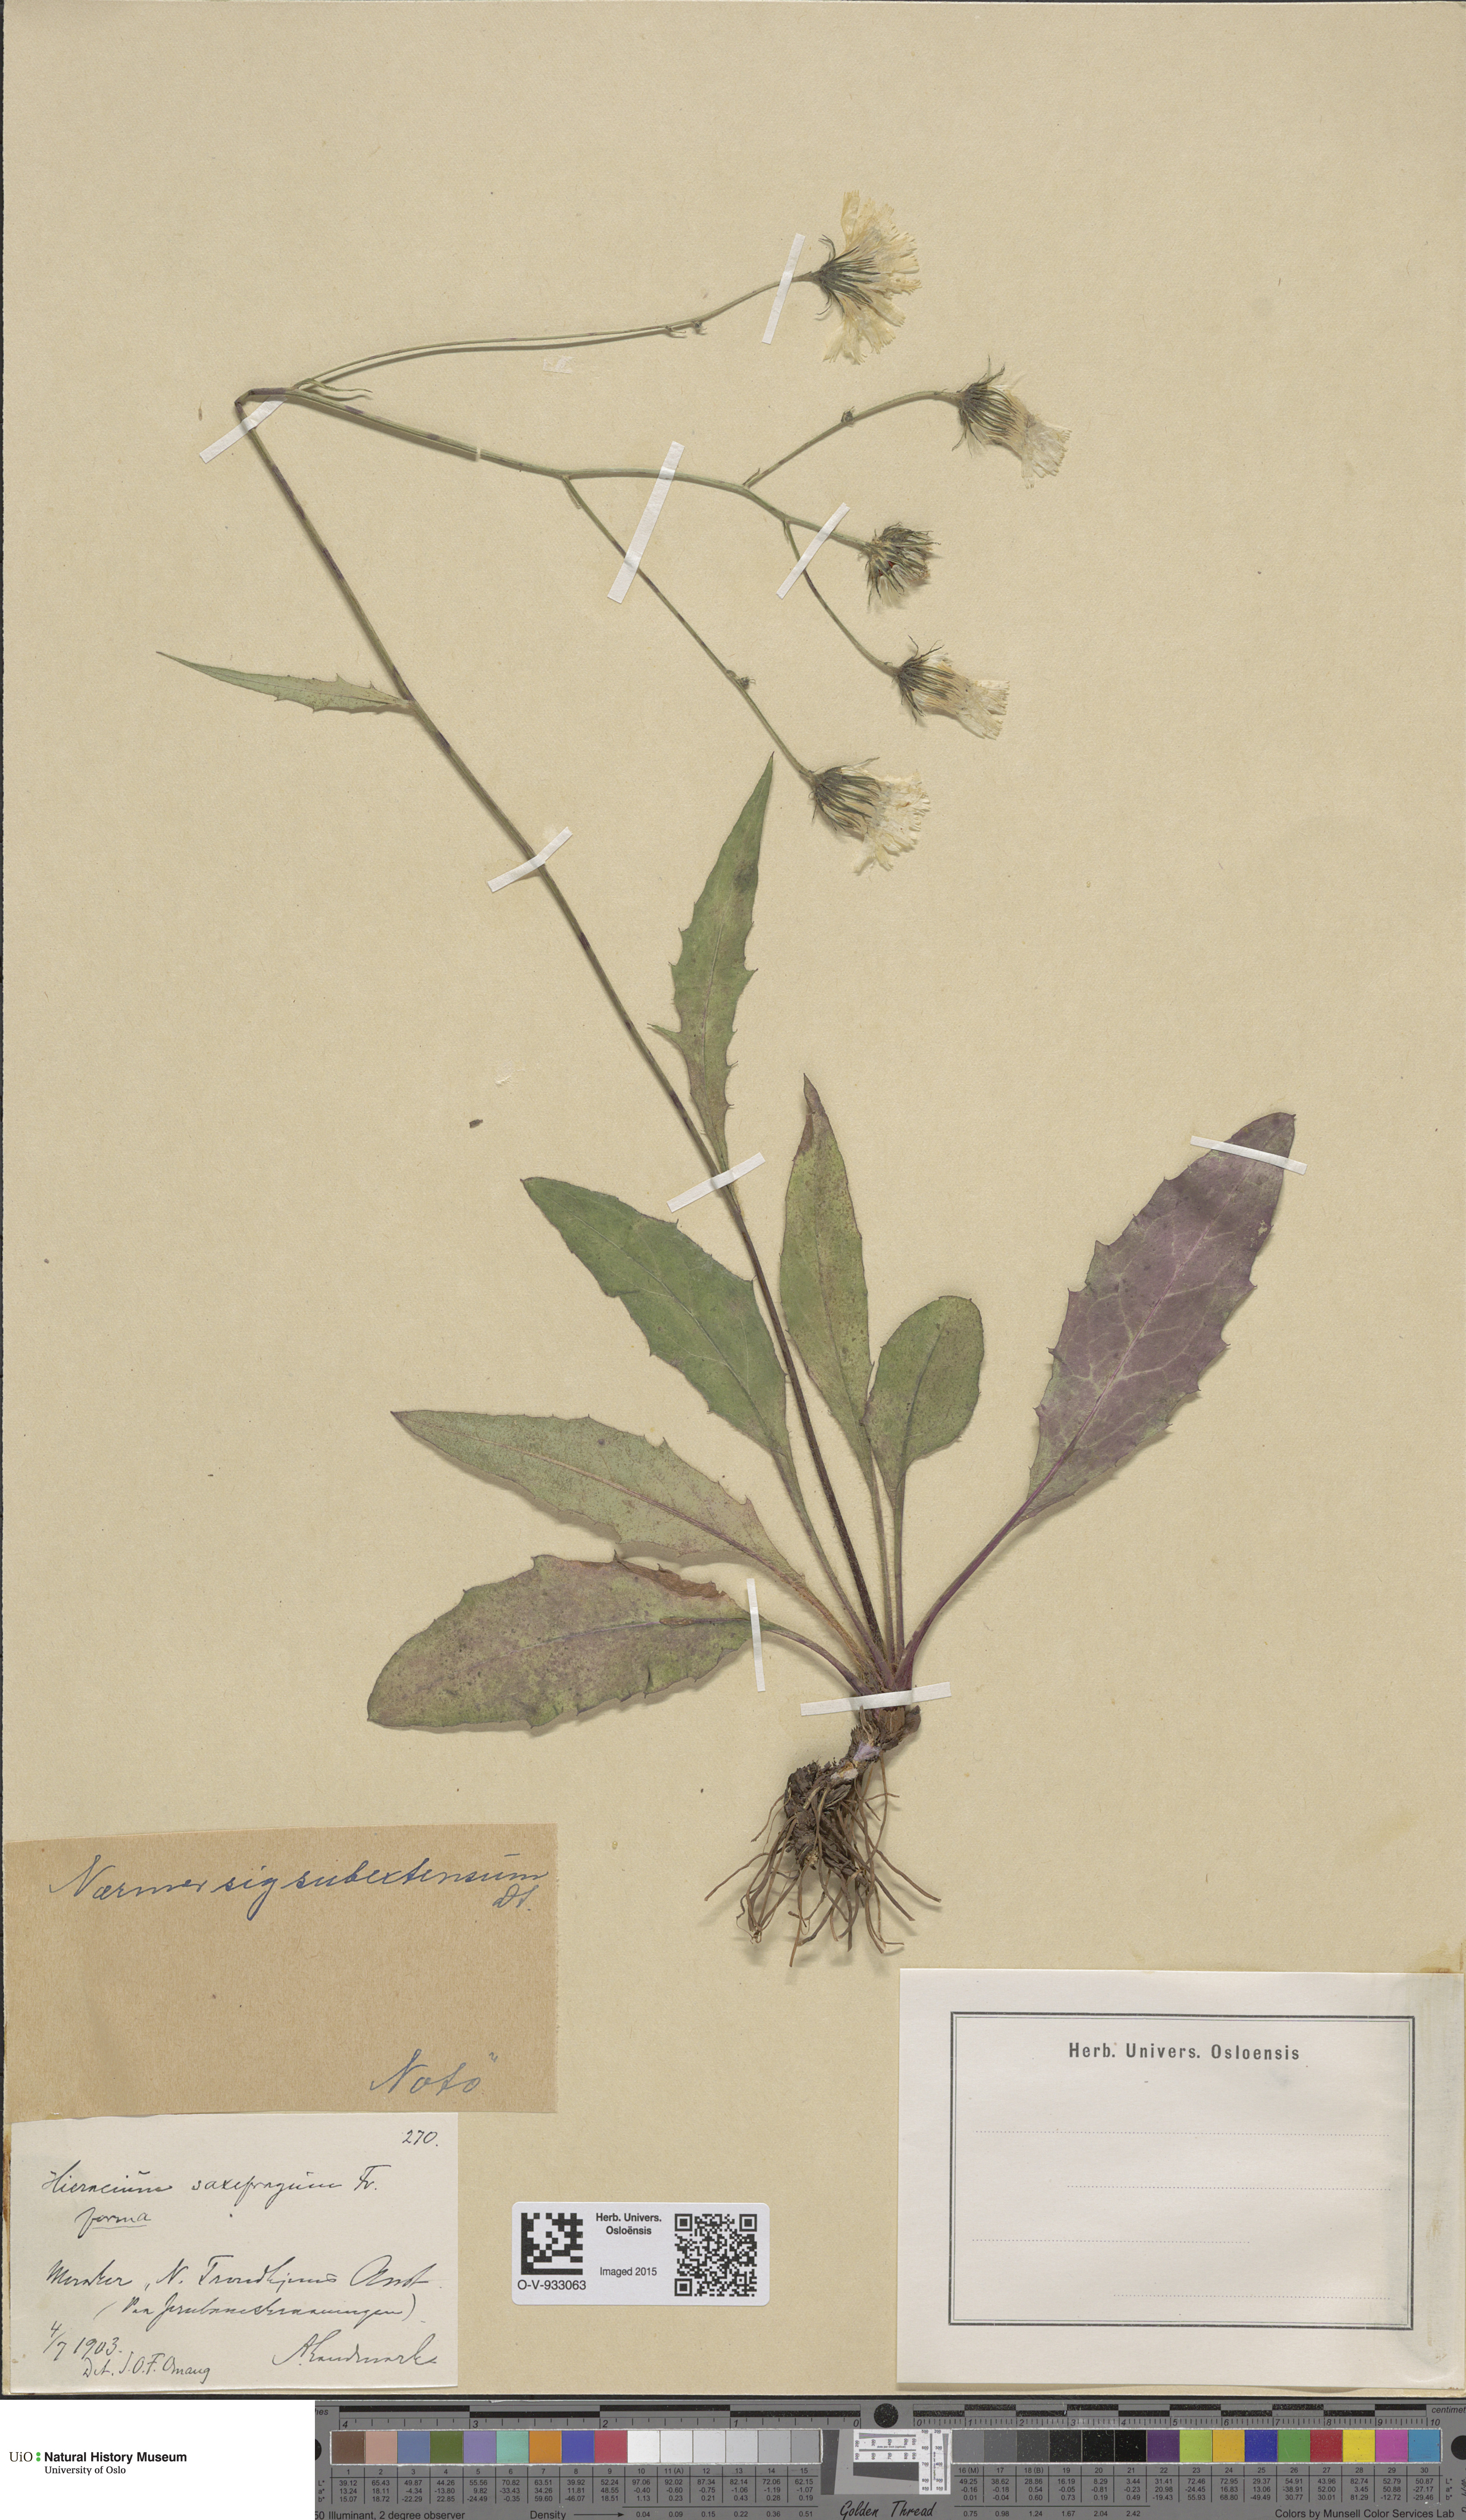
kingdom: Plantae
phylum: Tracheophyta
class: Magnoliopsida
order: Asterales
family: Asteraceae
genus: Hieracium
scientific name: Hieracium
